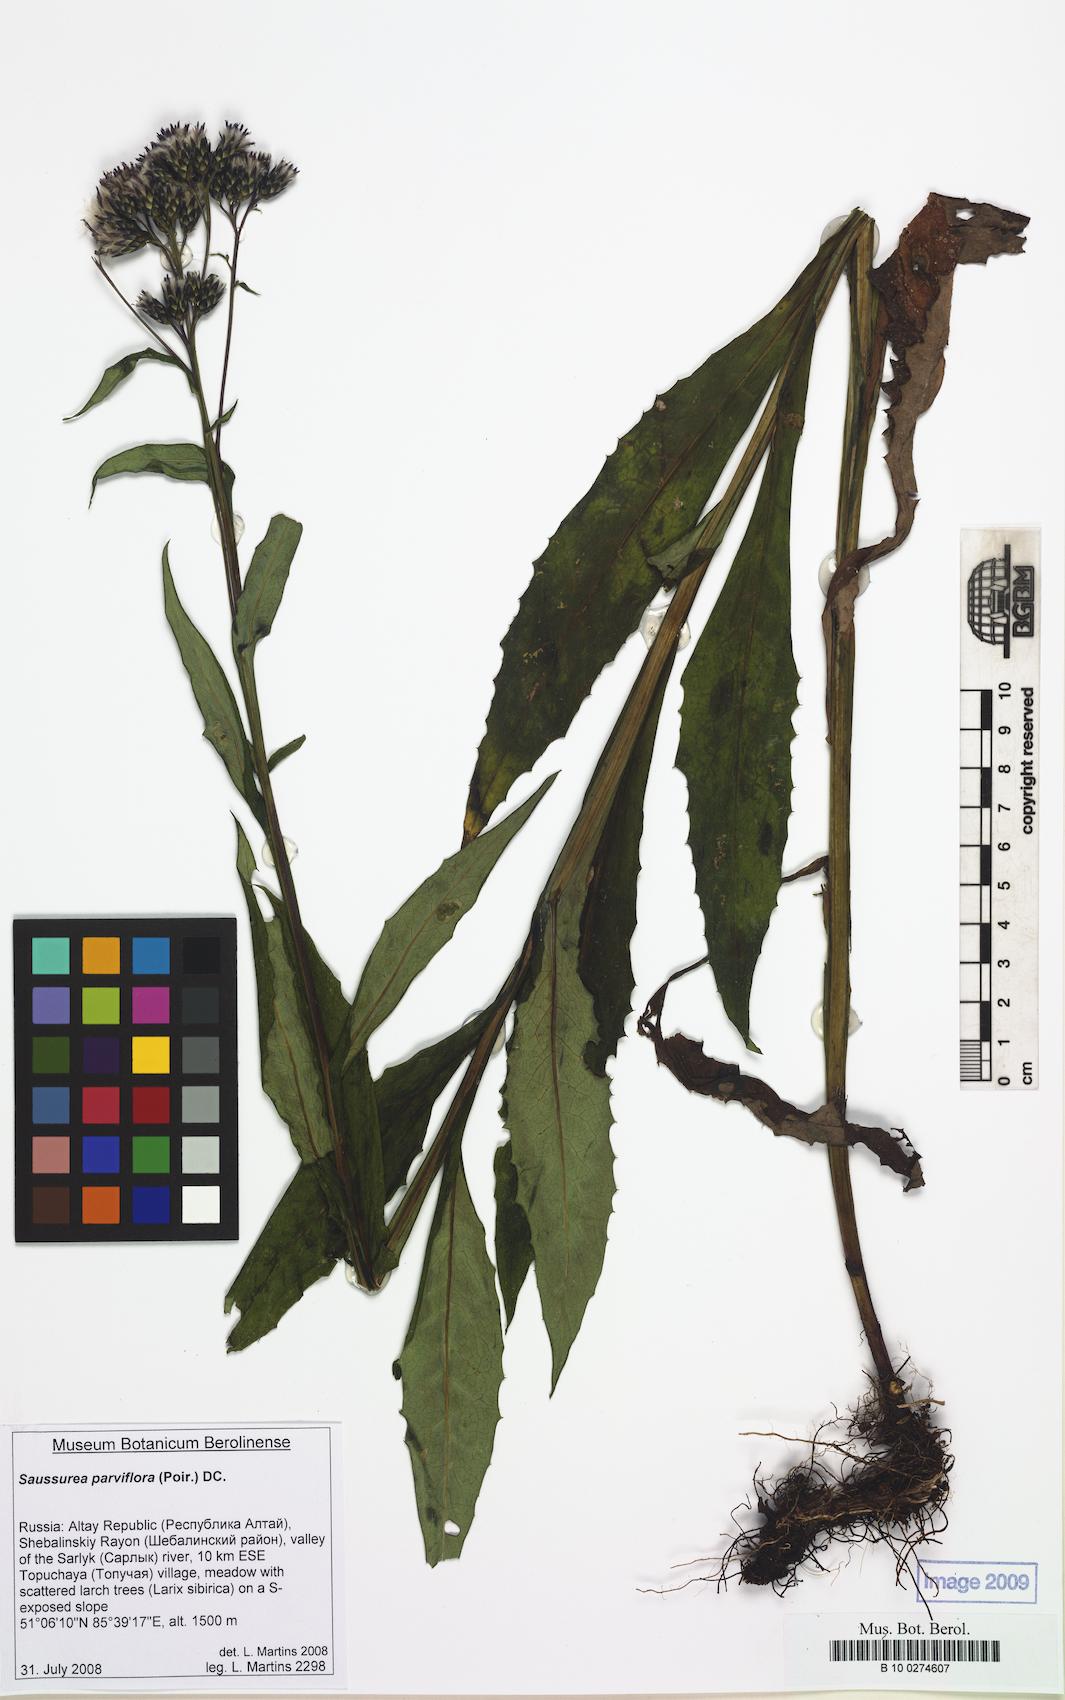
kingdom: Plantae
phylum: Tracheophyta
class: Magnoliopsida
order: Asterales
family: Asteraceae
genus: Saussurea
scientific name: Saussurea parviflora
